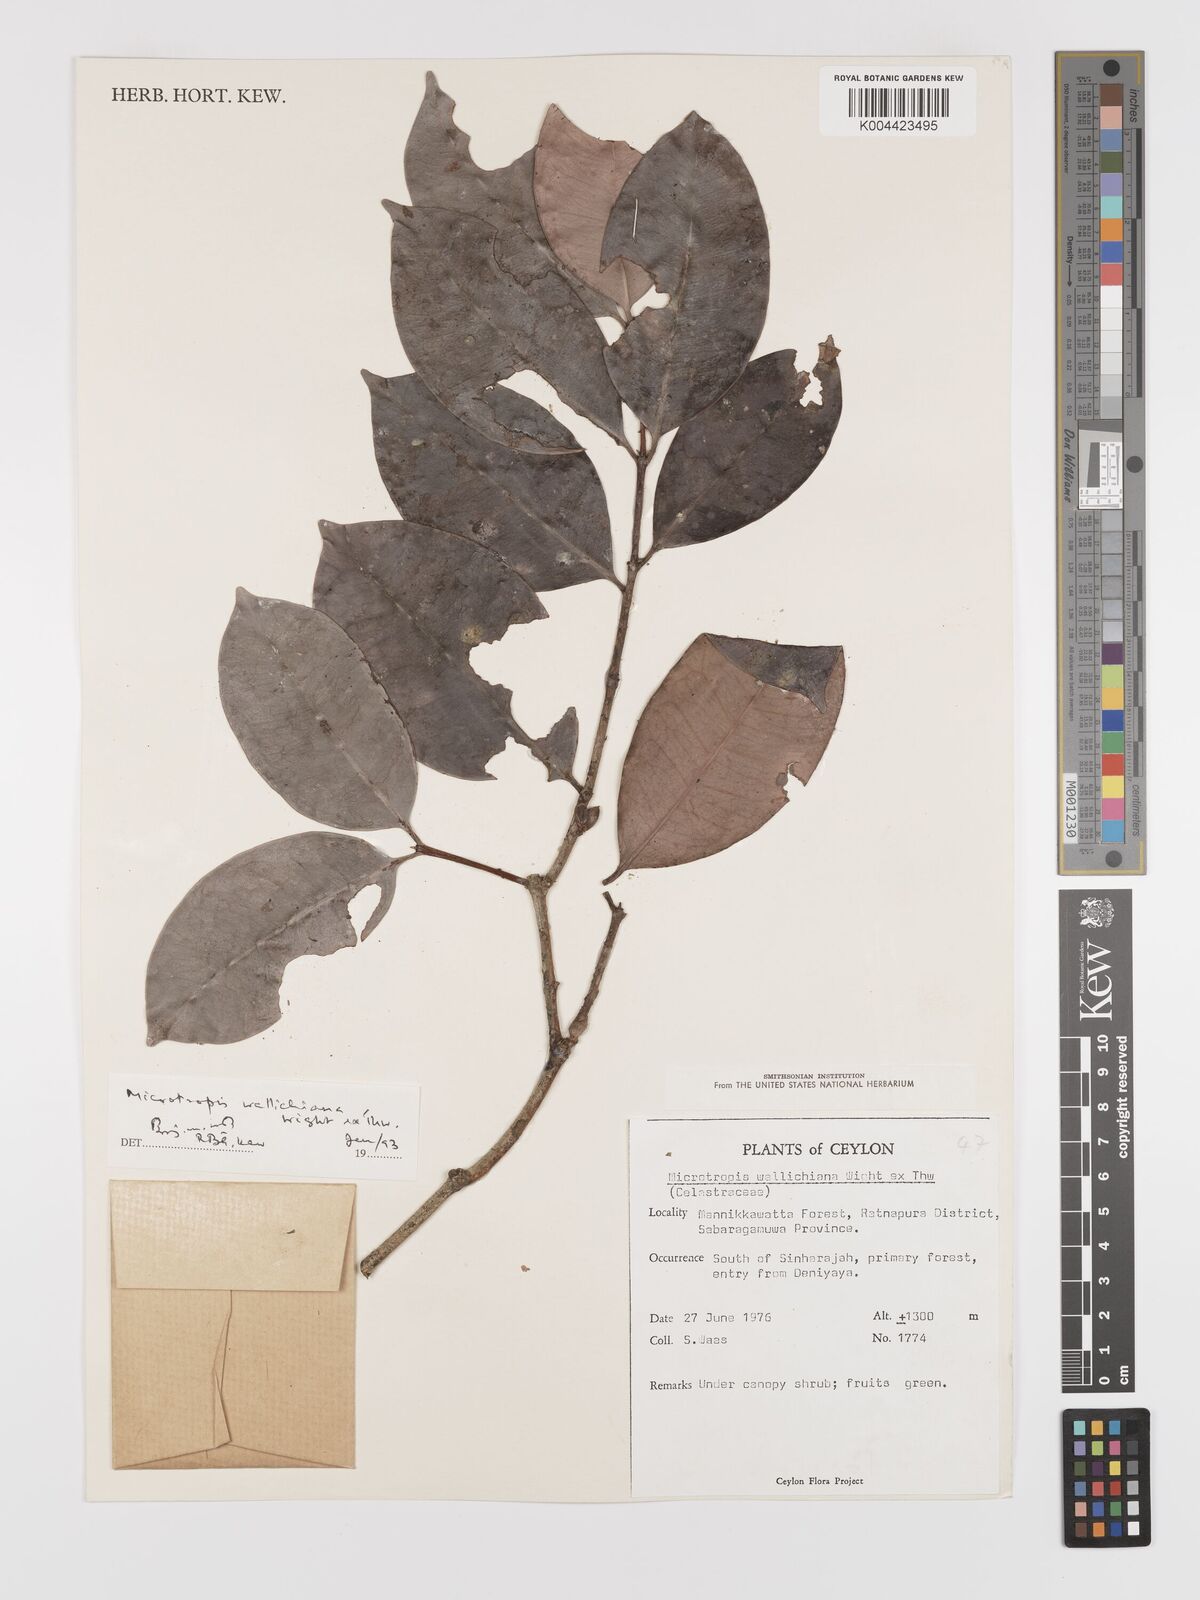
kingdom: Plantae
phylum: Tracheophyta
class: Magnoliopsida
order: Celastrales
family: Celastraceae
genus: Microtropis
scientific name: Microtropis wallichiana
